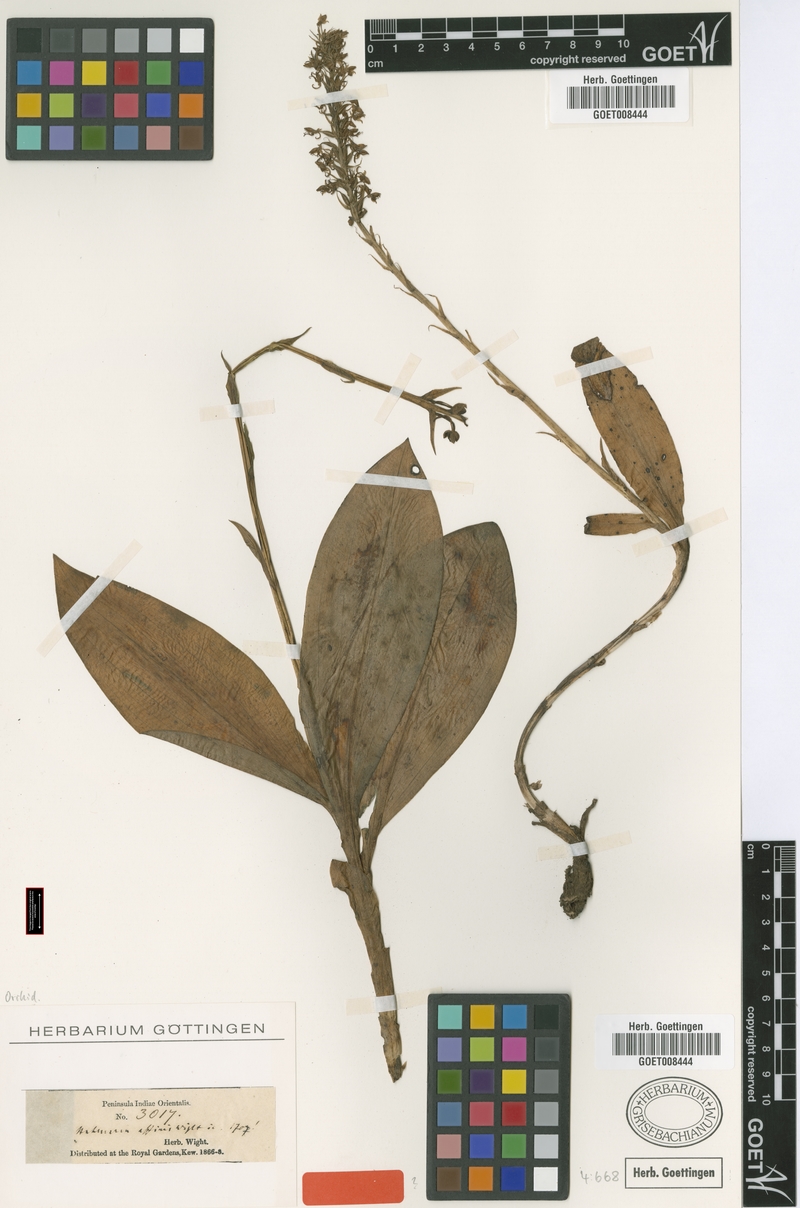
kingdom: Plantae
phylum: Tracheophyta
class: Liliopsida
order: Asparagales
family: Orchidaceae
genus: Habenaria
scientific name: Habenaria hollandiana
